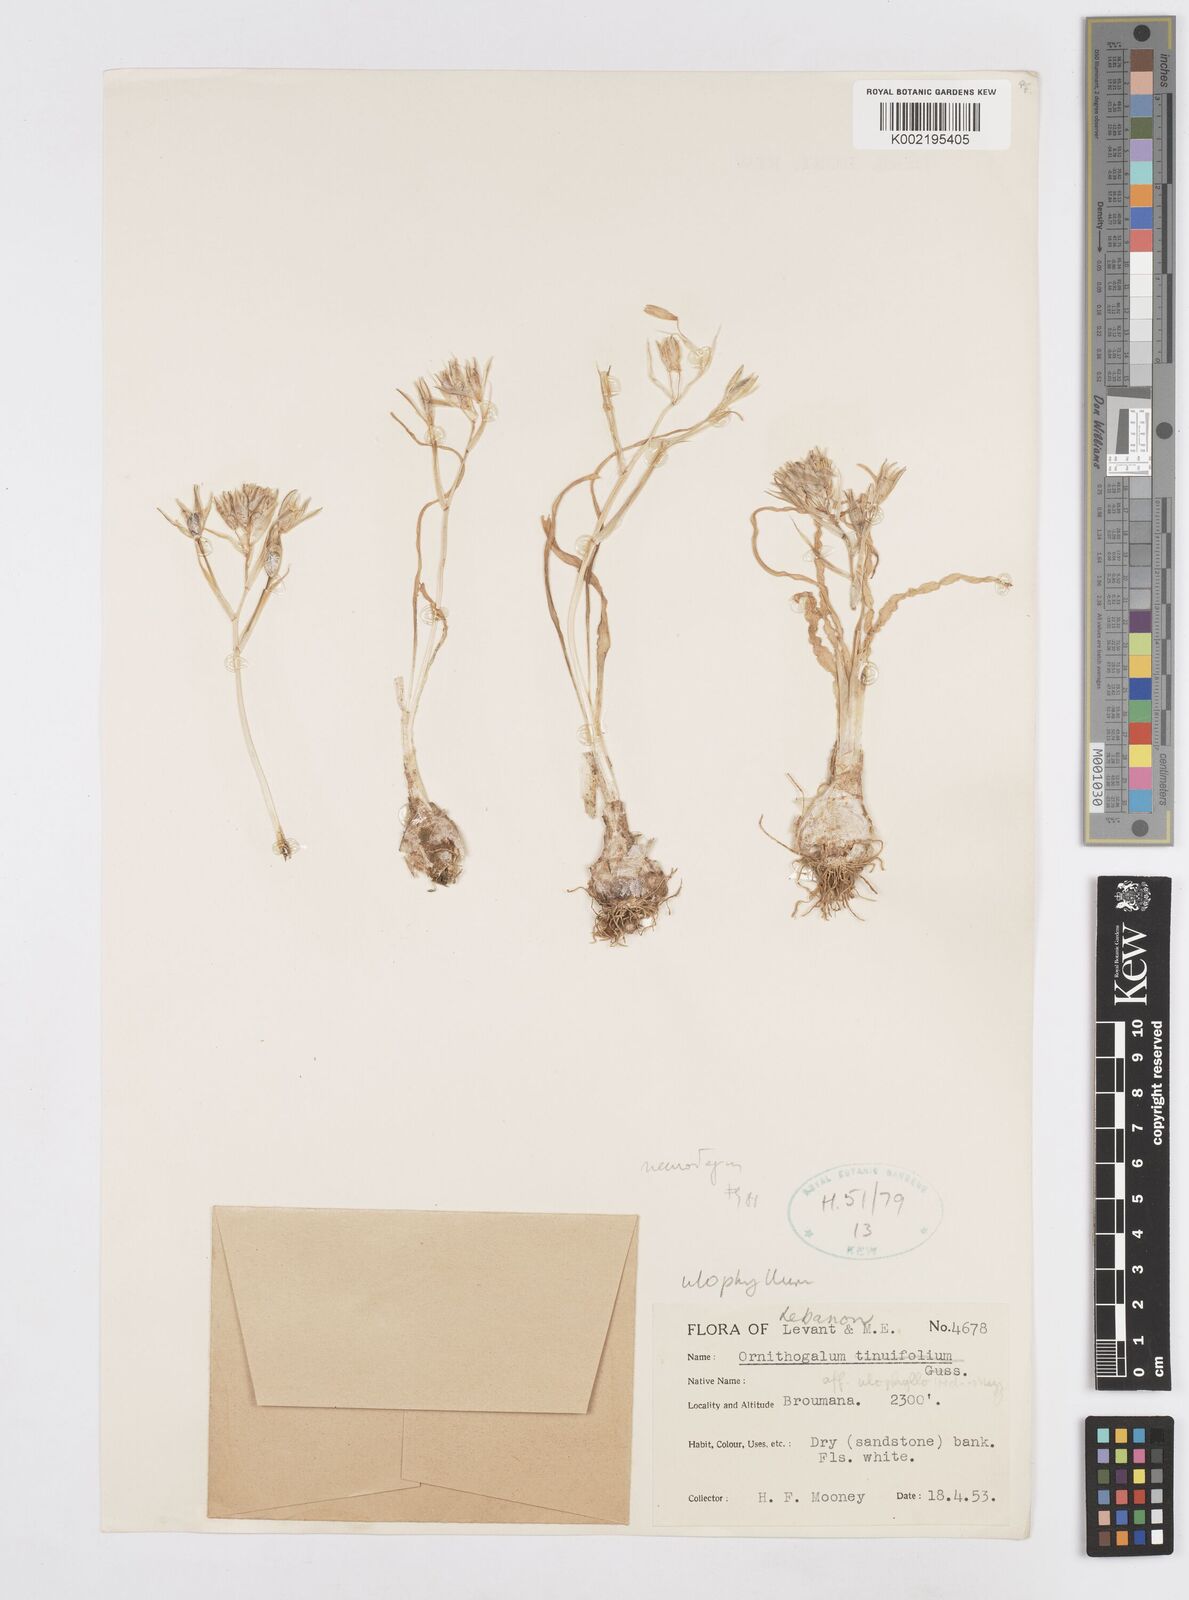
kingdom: Plantae
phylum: Tracheophyta
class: Liliopsida
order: Asparagales
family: Asparagaceae
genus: Ornithogalum
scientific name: Ornithogalum neurostegium
